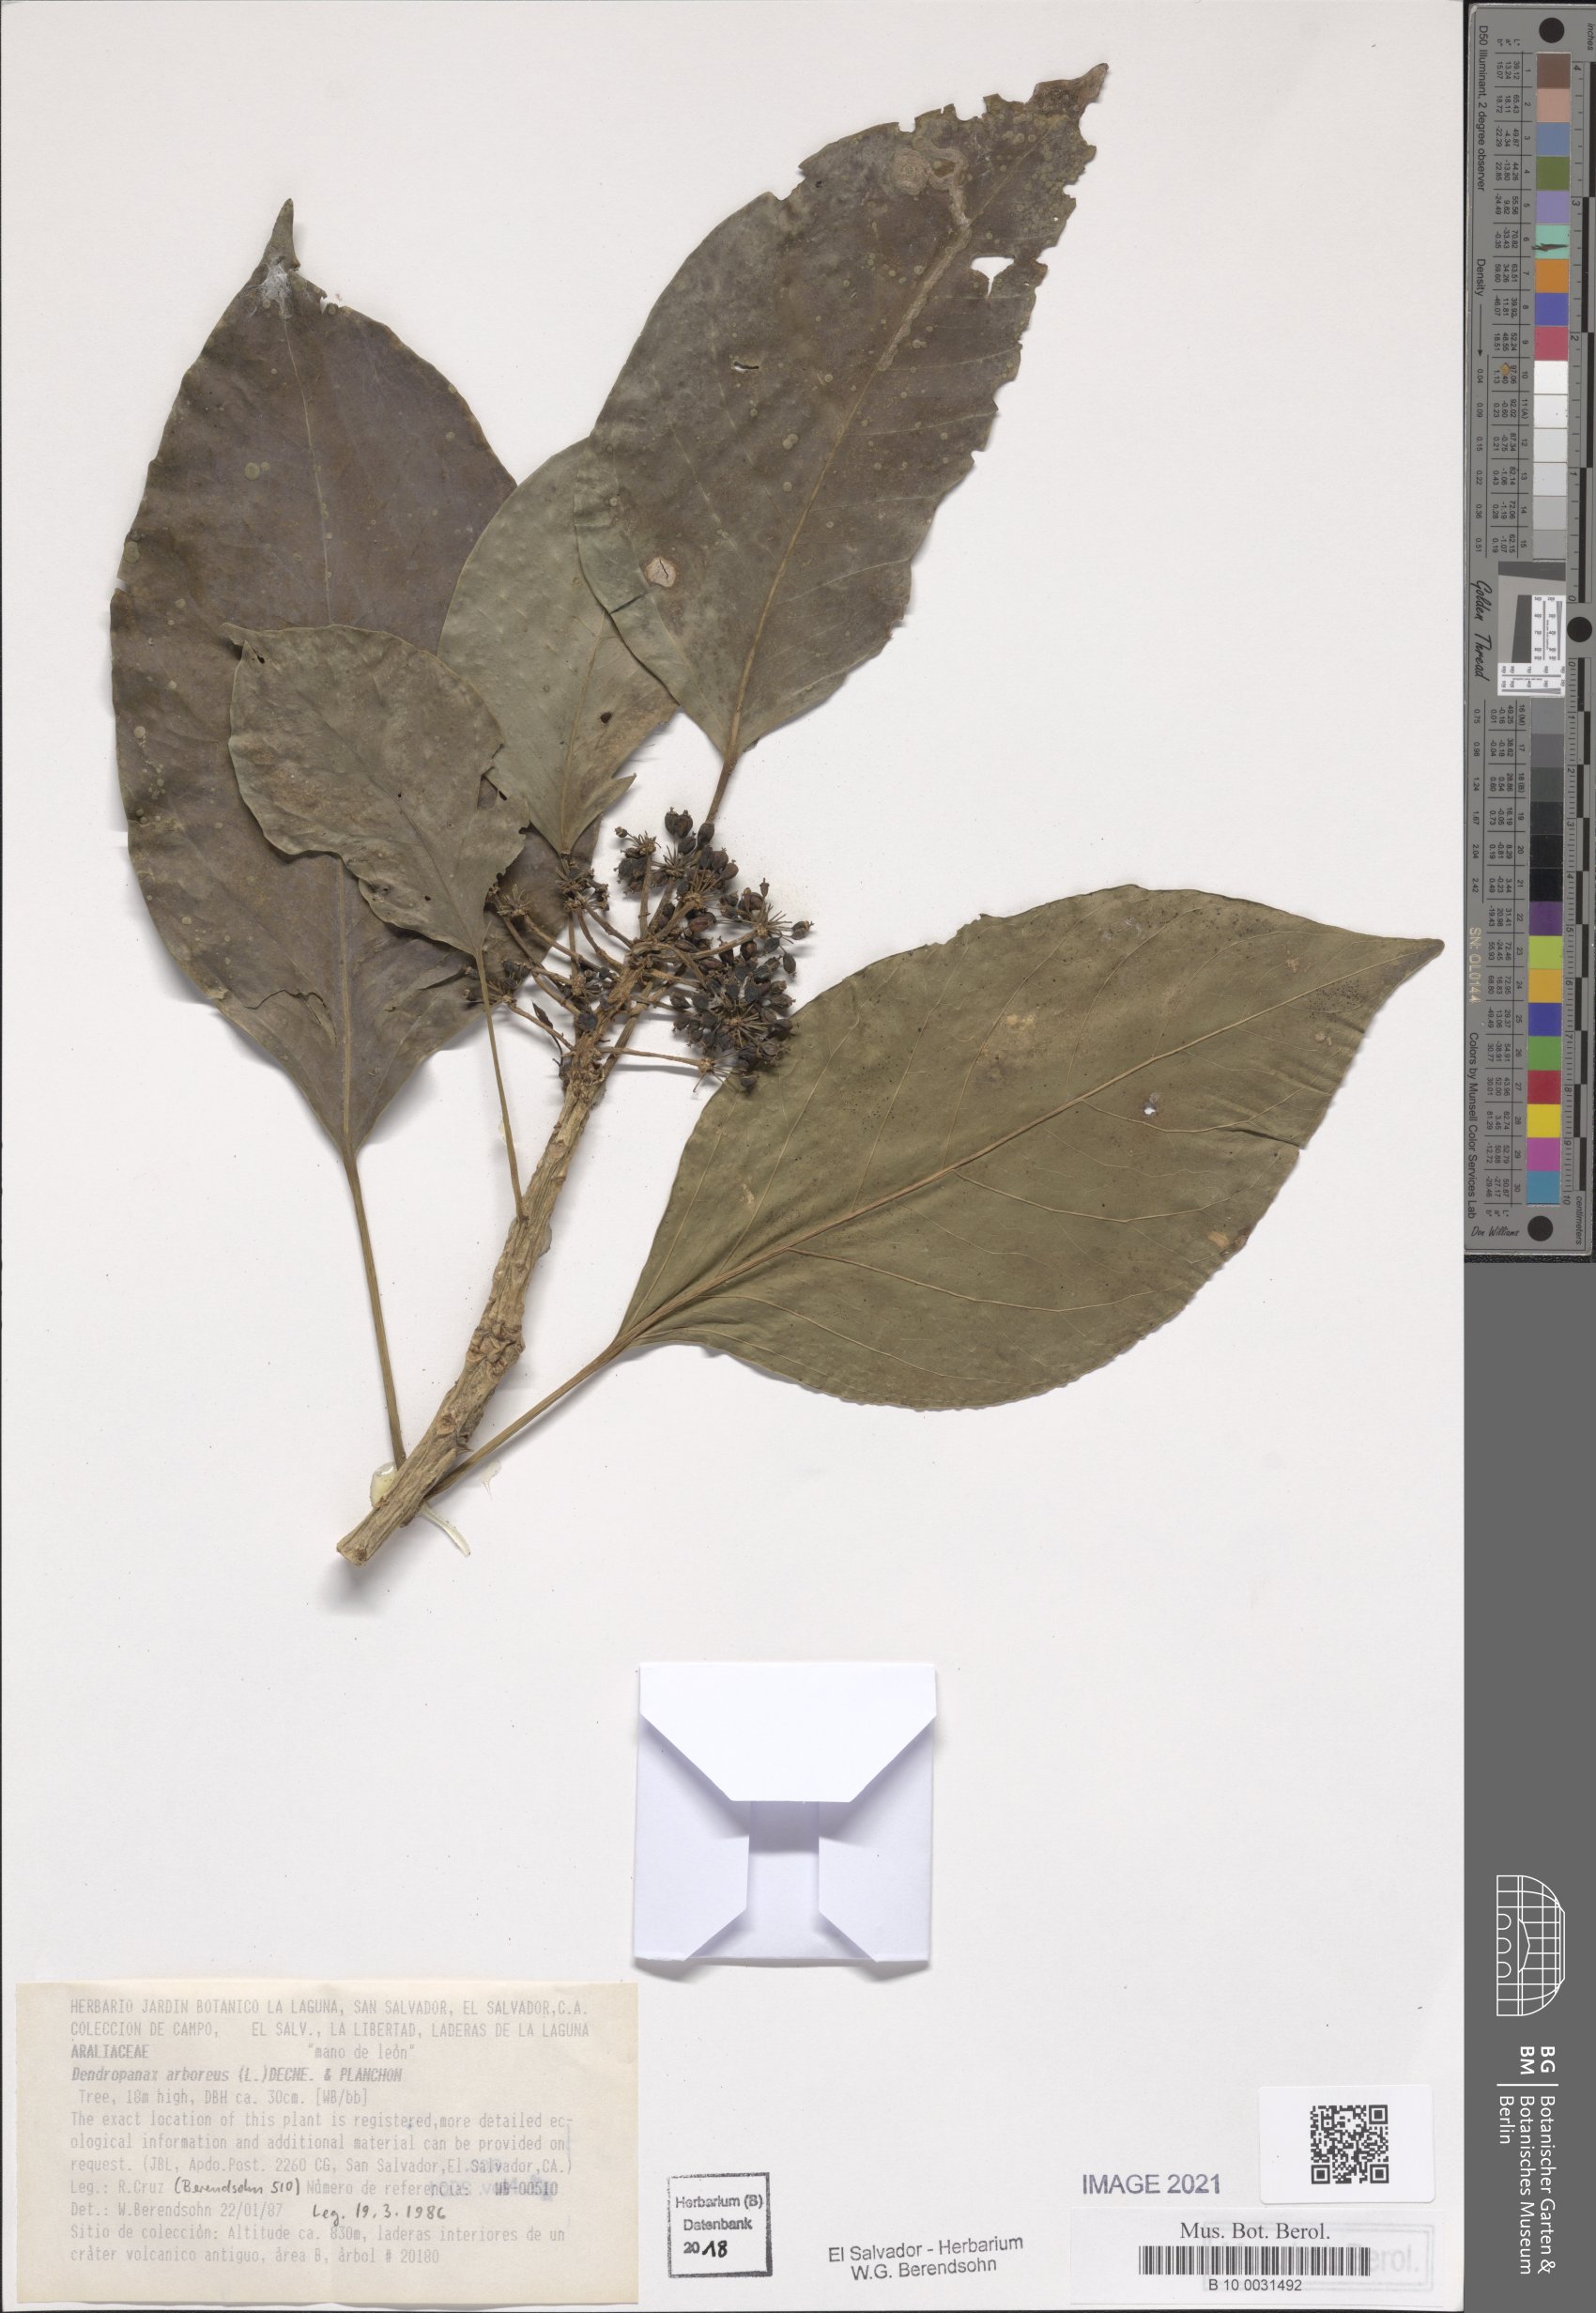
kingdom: Plantae
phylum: Tracheophyta
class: Magnoliopsida
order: Apiales
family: Araliaceae
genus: Dendropanax
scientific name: Dendropanax arboreus
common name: Potato-wood
